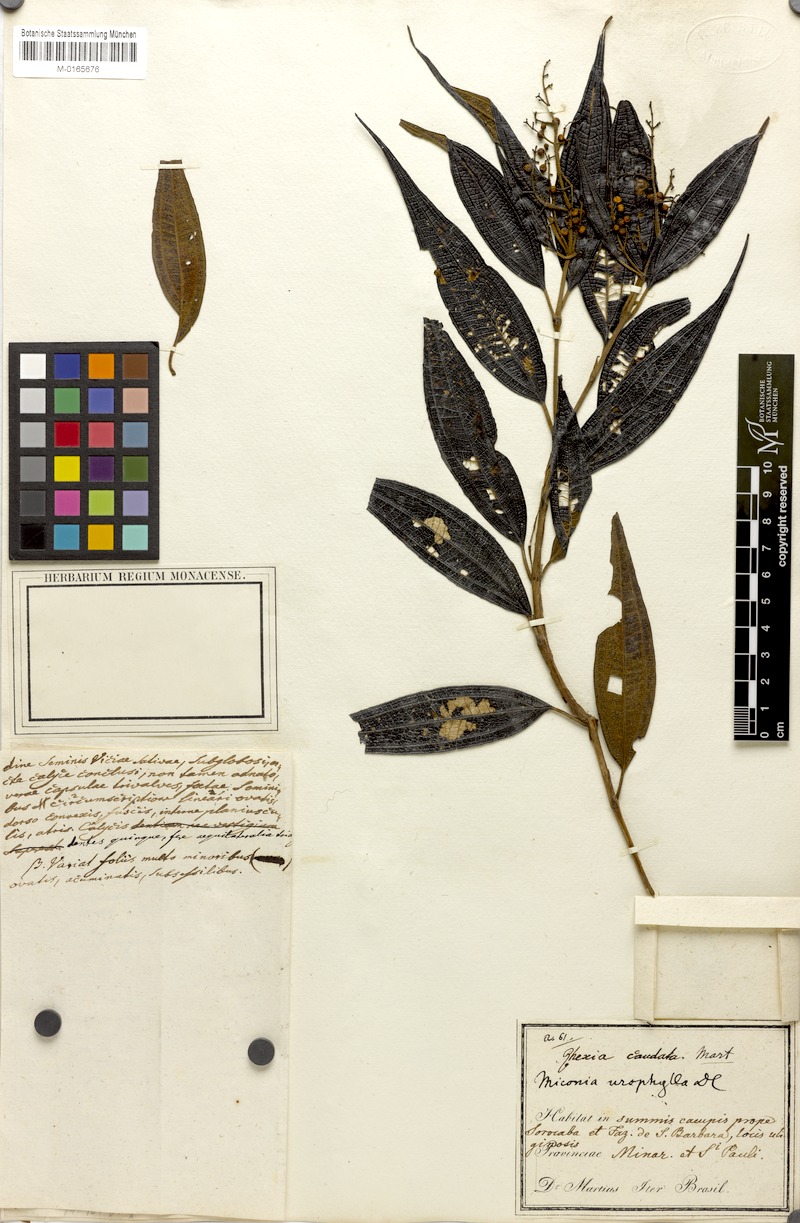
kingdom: Plantae
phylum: Tracheophyta
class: Magnoliopsida
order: Myrtales
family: Melastomataceae
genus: Miconia
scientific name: Miconia urophylla
